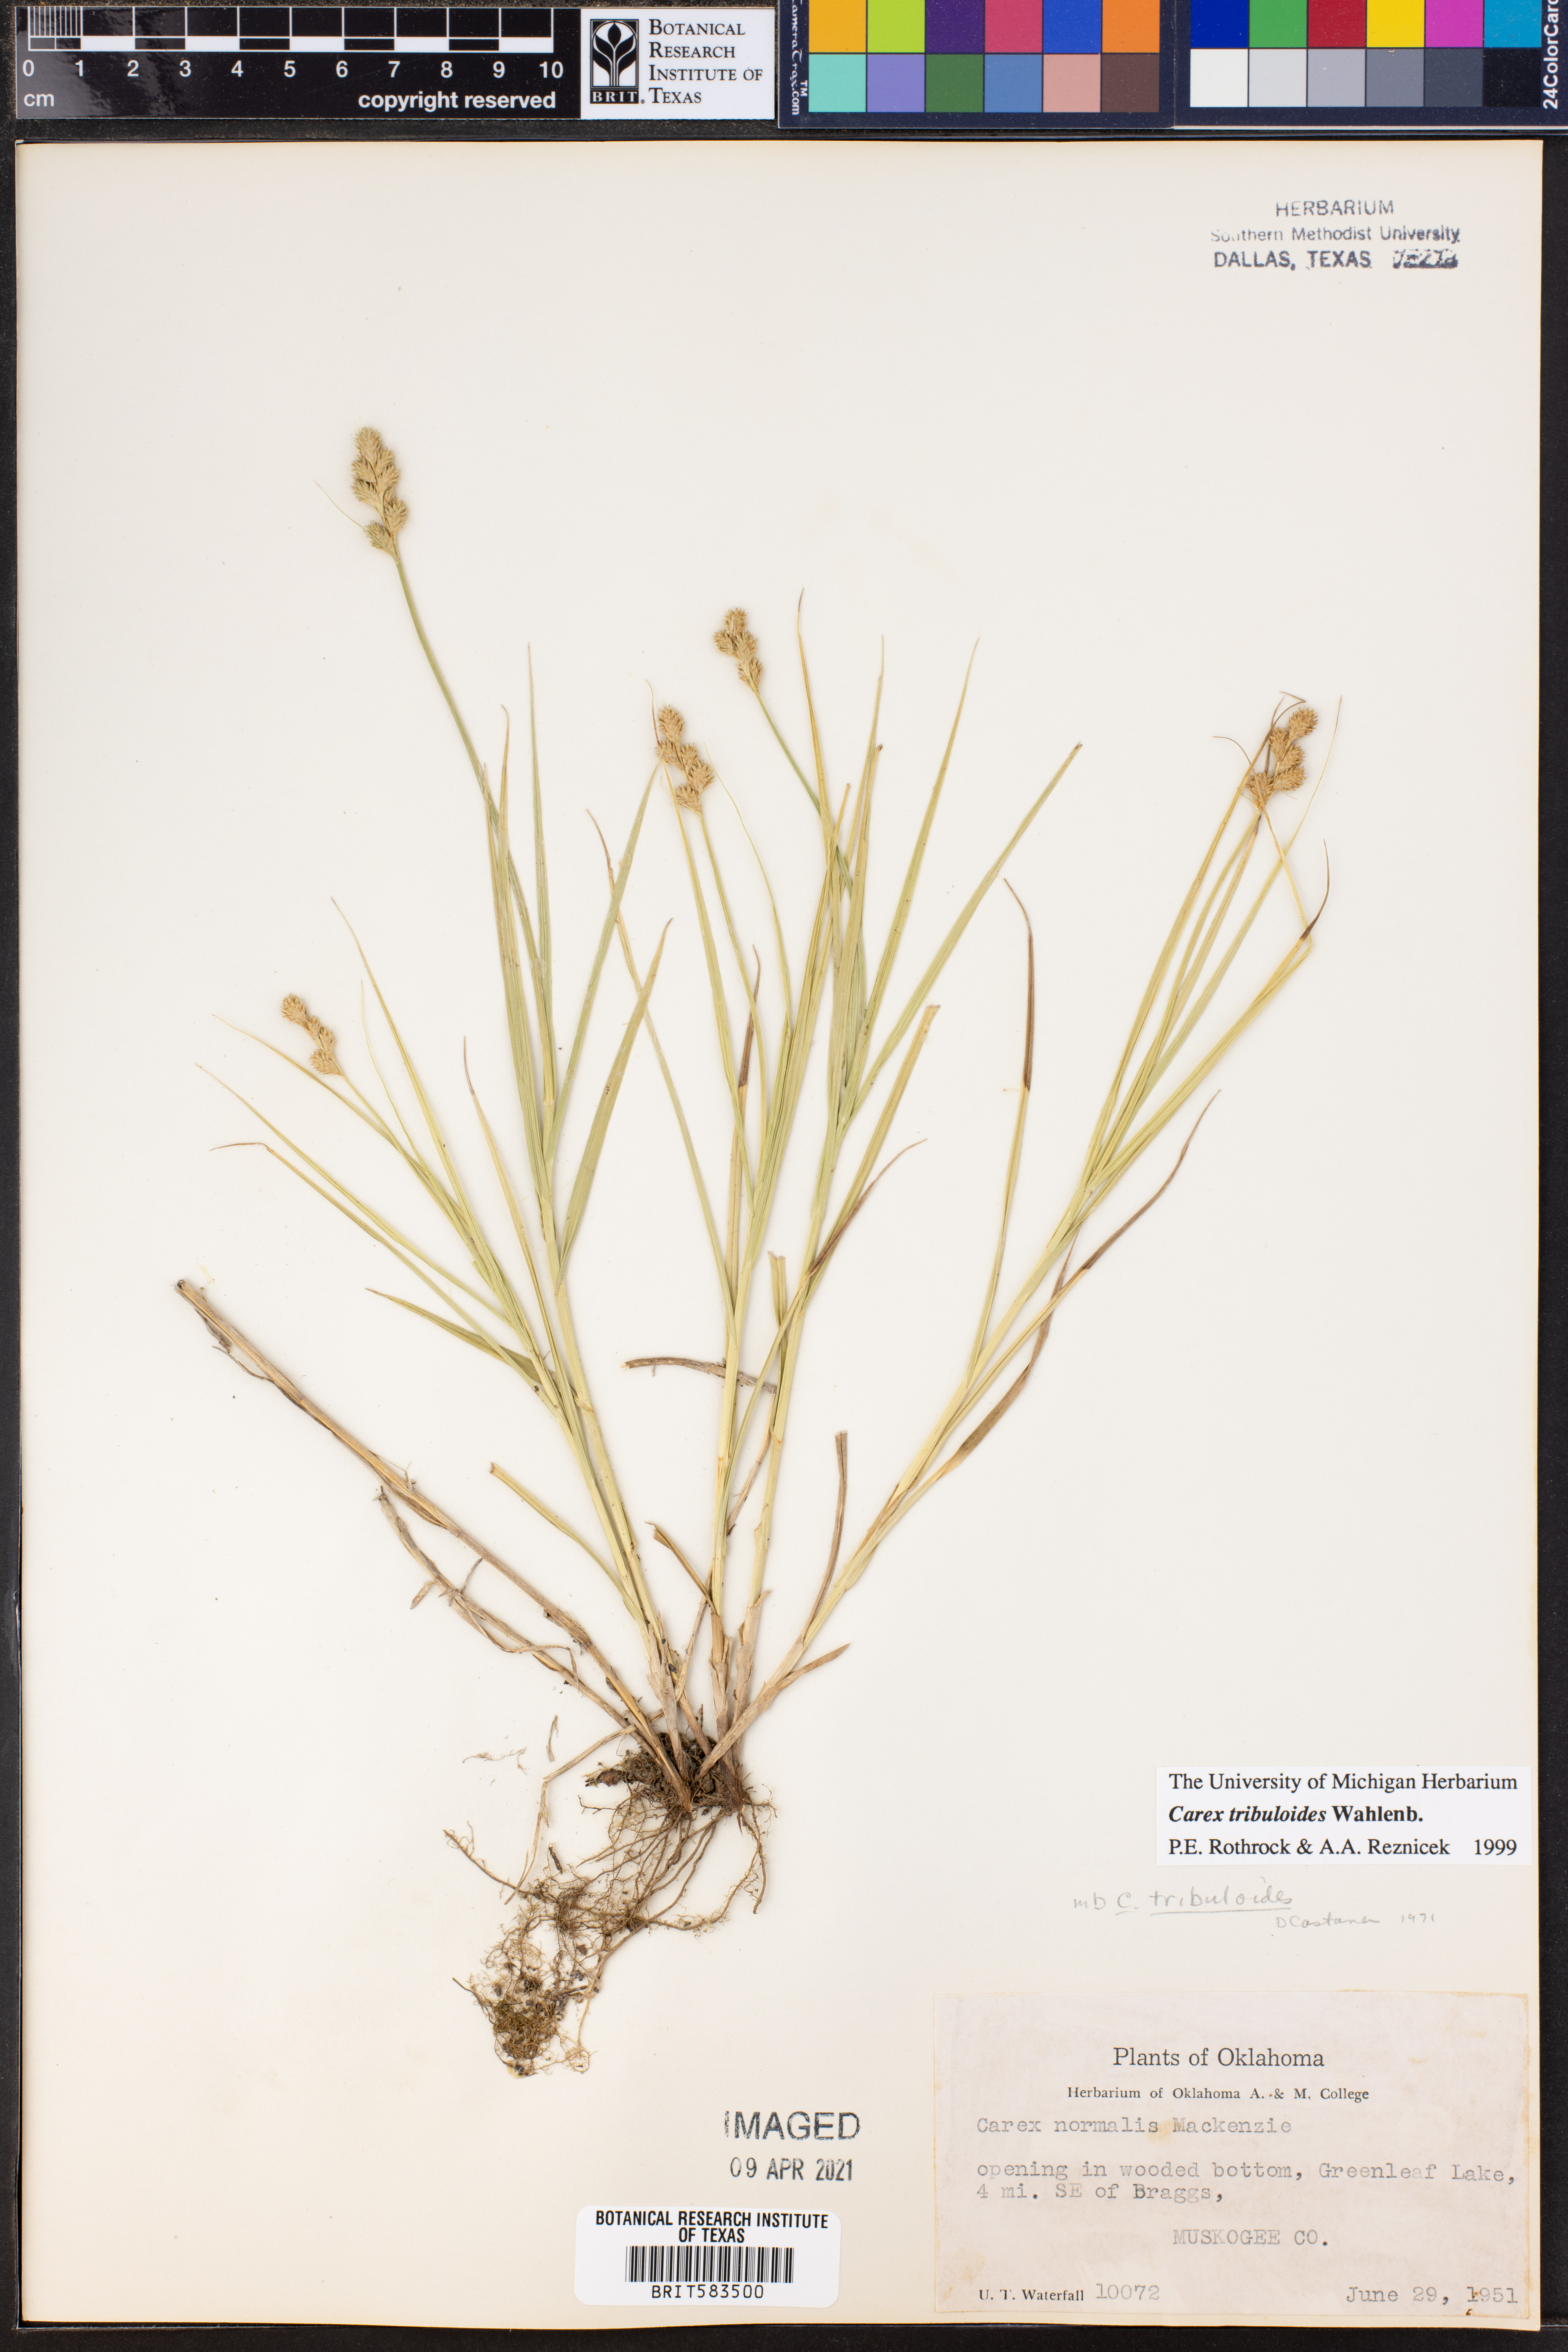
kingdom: Plantae
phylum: Tracheophyta
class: Liliopsida
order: Poales
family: Cyperaceae
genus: Carex
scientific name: Carex tribuloides
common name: Blunt broom sedge
